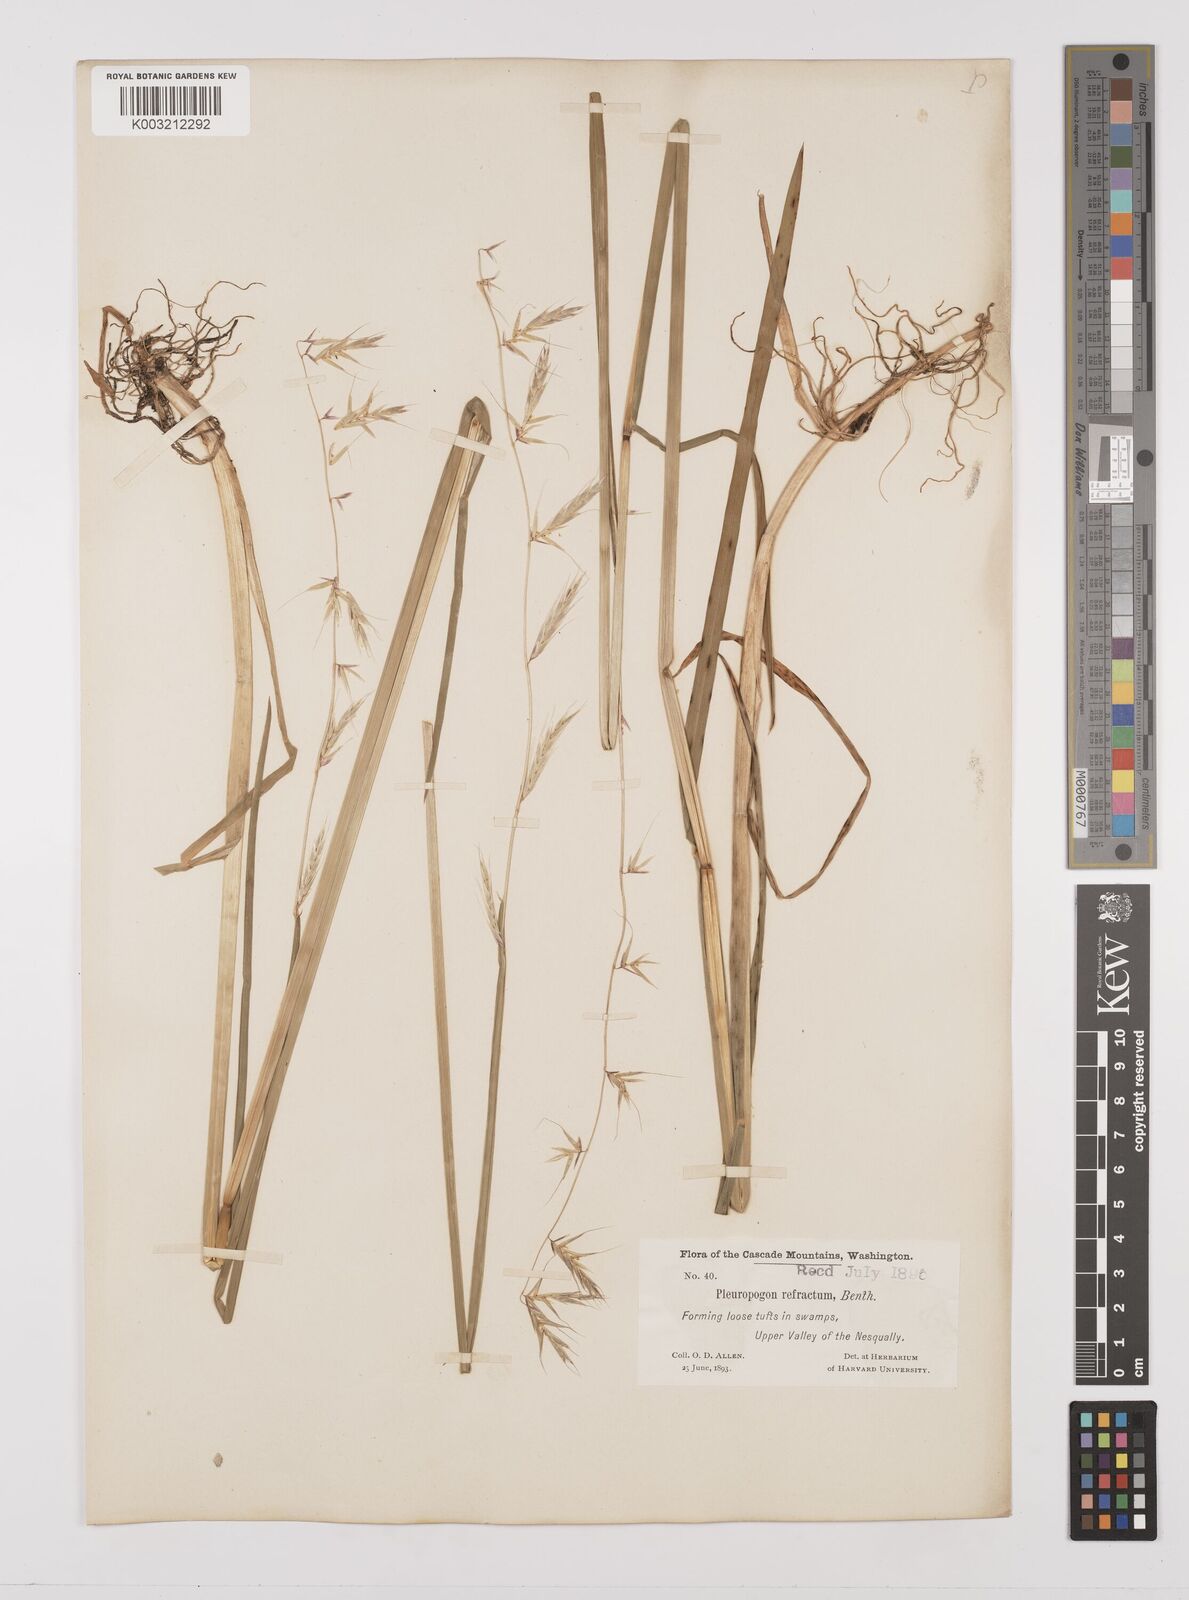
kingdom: Plantae
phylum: Tracheophyta
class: Liliopsida
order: Poales
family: Poaceae
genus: Pleuropogon
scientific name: Pleuropogon refractus
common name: Nodding false semaphoregrass
